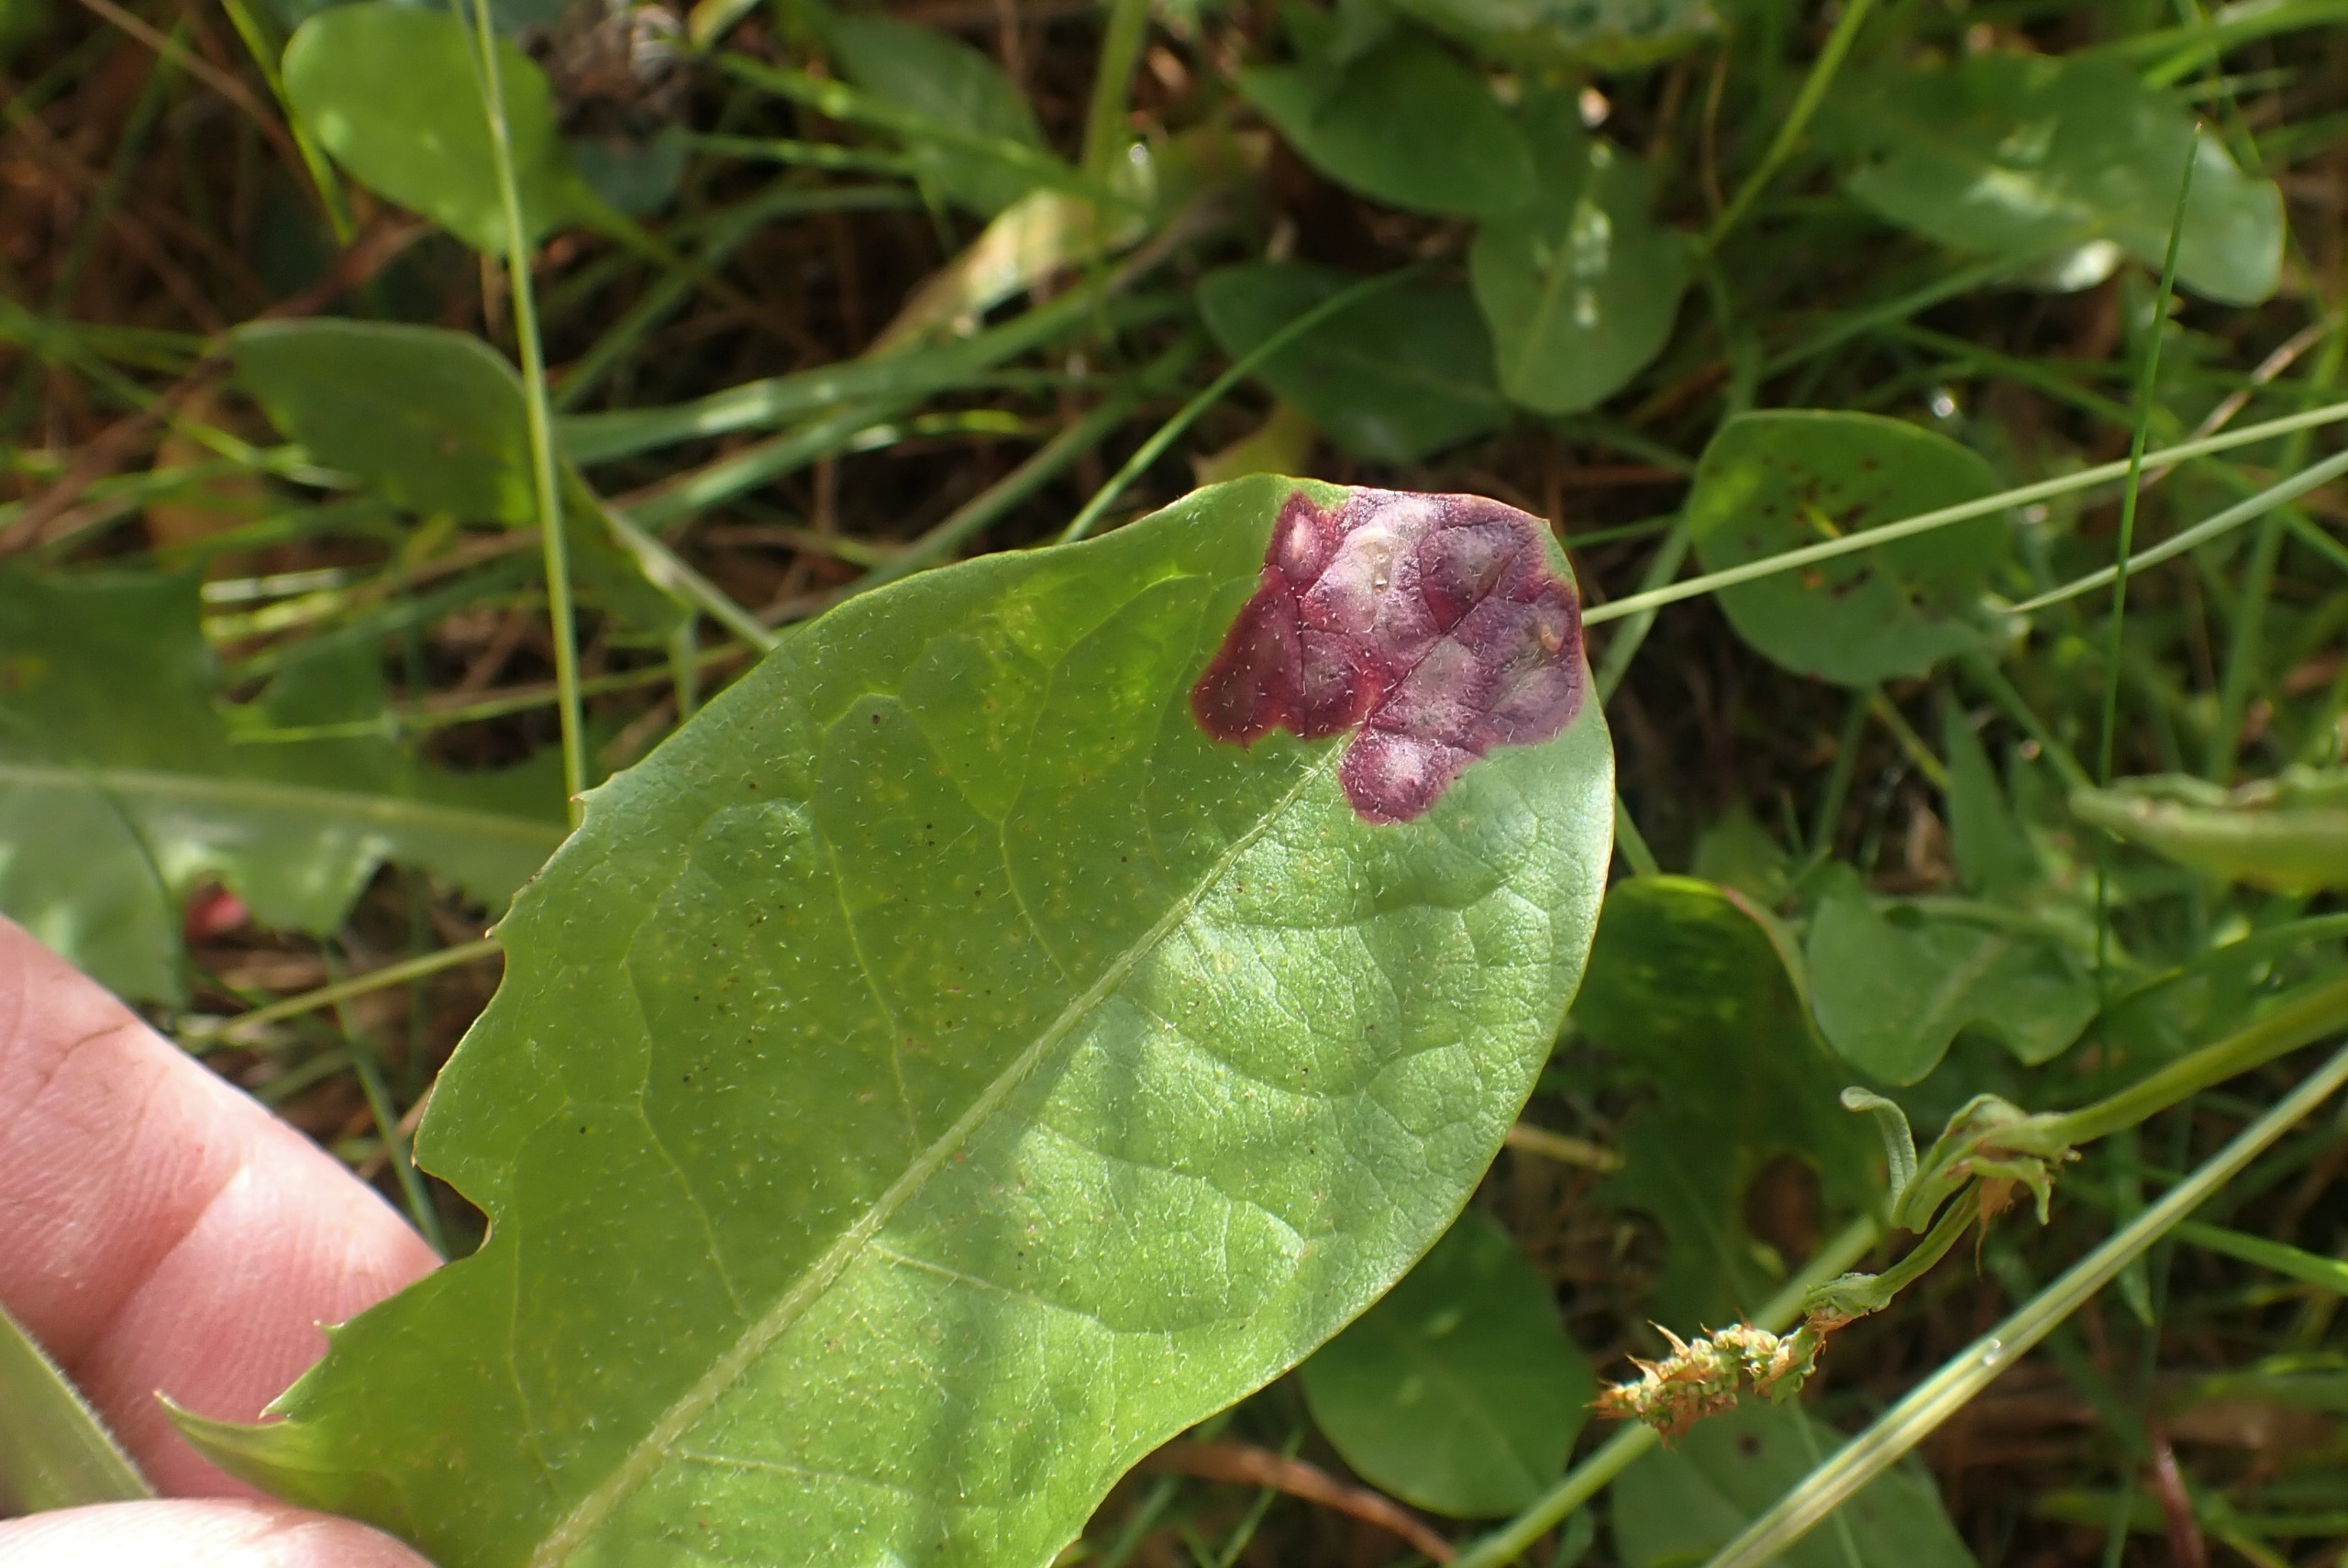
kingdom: Animalia
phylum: Arthropoda
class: Insecta
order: Diptera
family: Cecidomyiidae
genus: Cystiphora
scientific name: Cystiphora taraxaci
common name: Mælkebøttegalmyg
